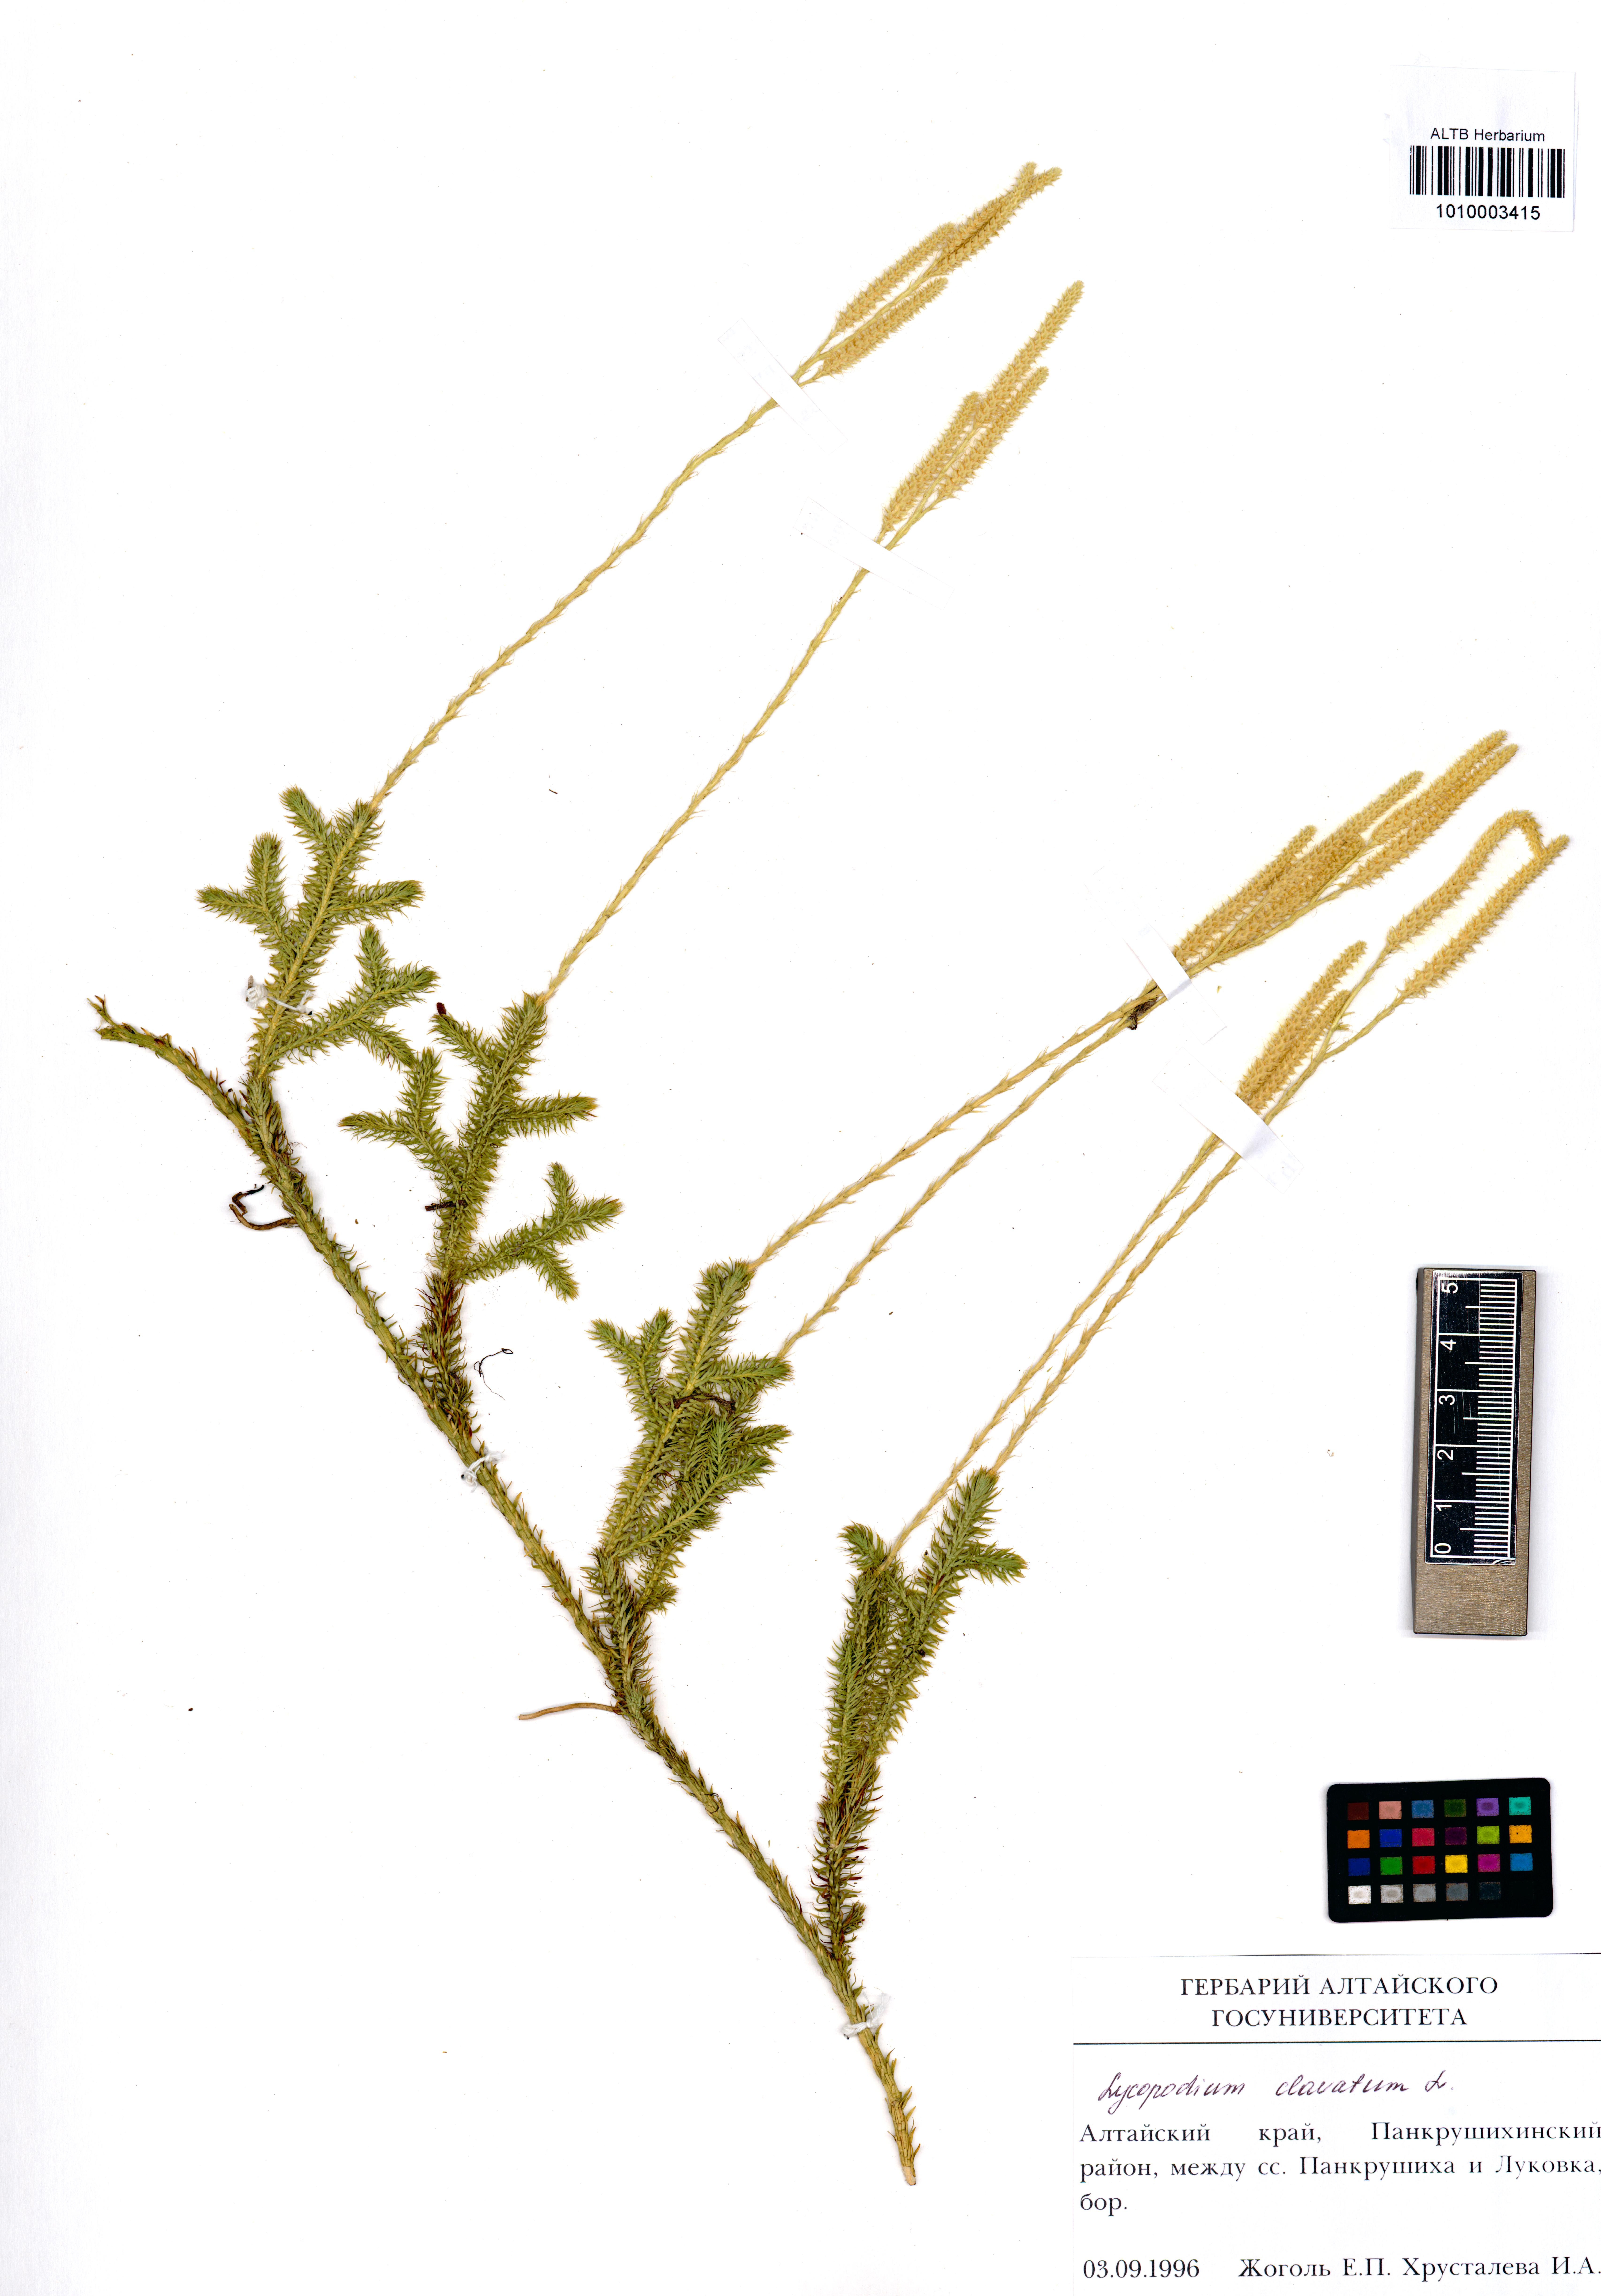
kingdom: Plantae
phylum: Tracheophyta
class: Lycopodiopsida
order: Lycopodiales
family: Lycopodiaceae
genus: Lycopodium
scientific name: Lycopodium clavatum
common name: Stag's-horn clubmoss
